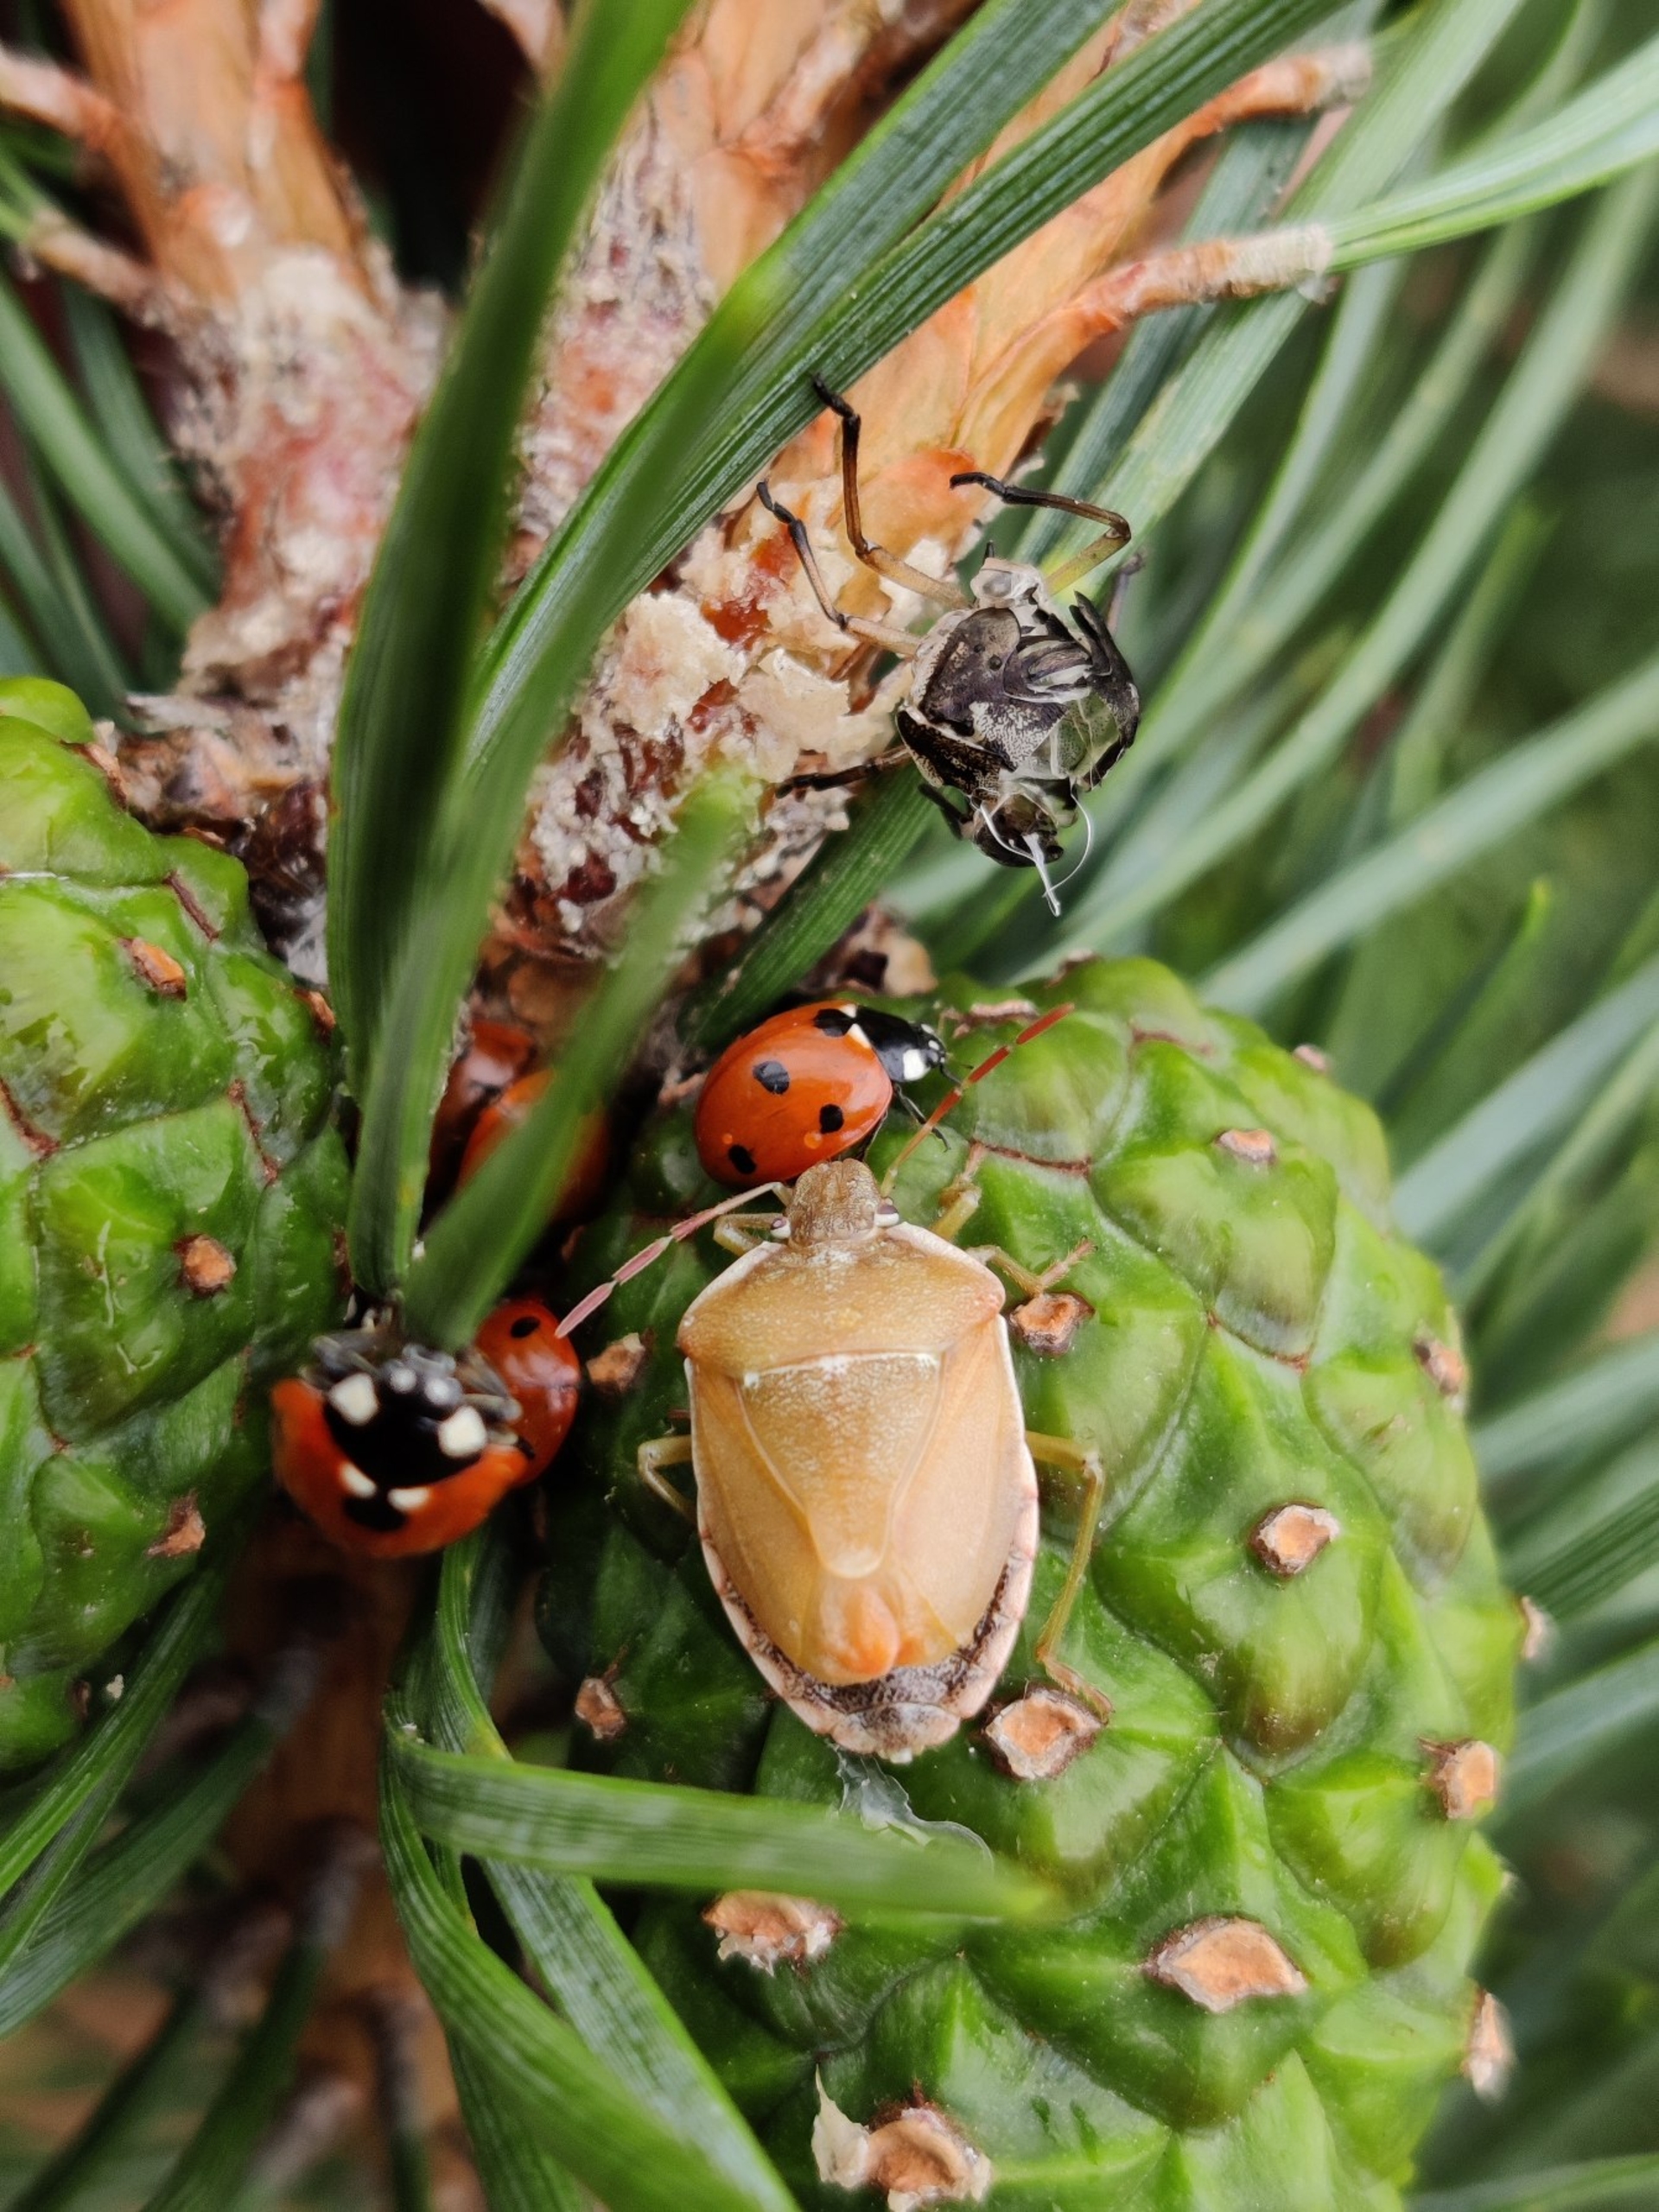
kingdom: Animalia
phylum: Arthropoda
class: Insecta
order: Hemiptera
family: Pentatomidae
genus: Chlorochroa
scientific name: Chlorochroa pinicola
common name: Fyrrebredtæge
